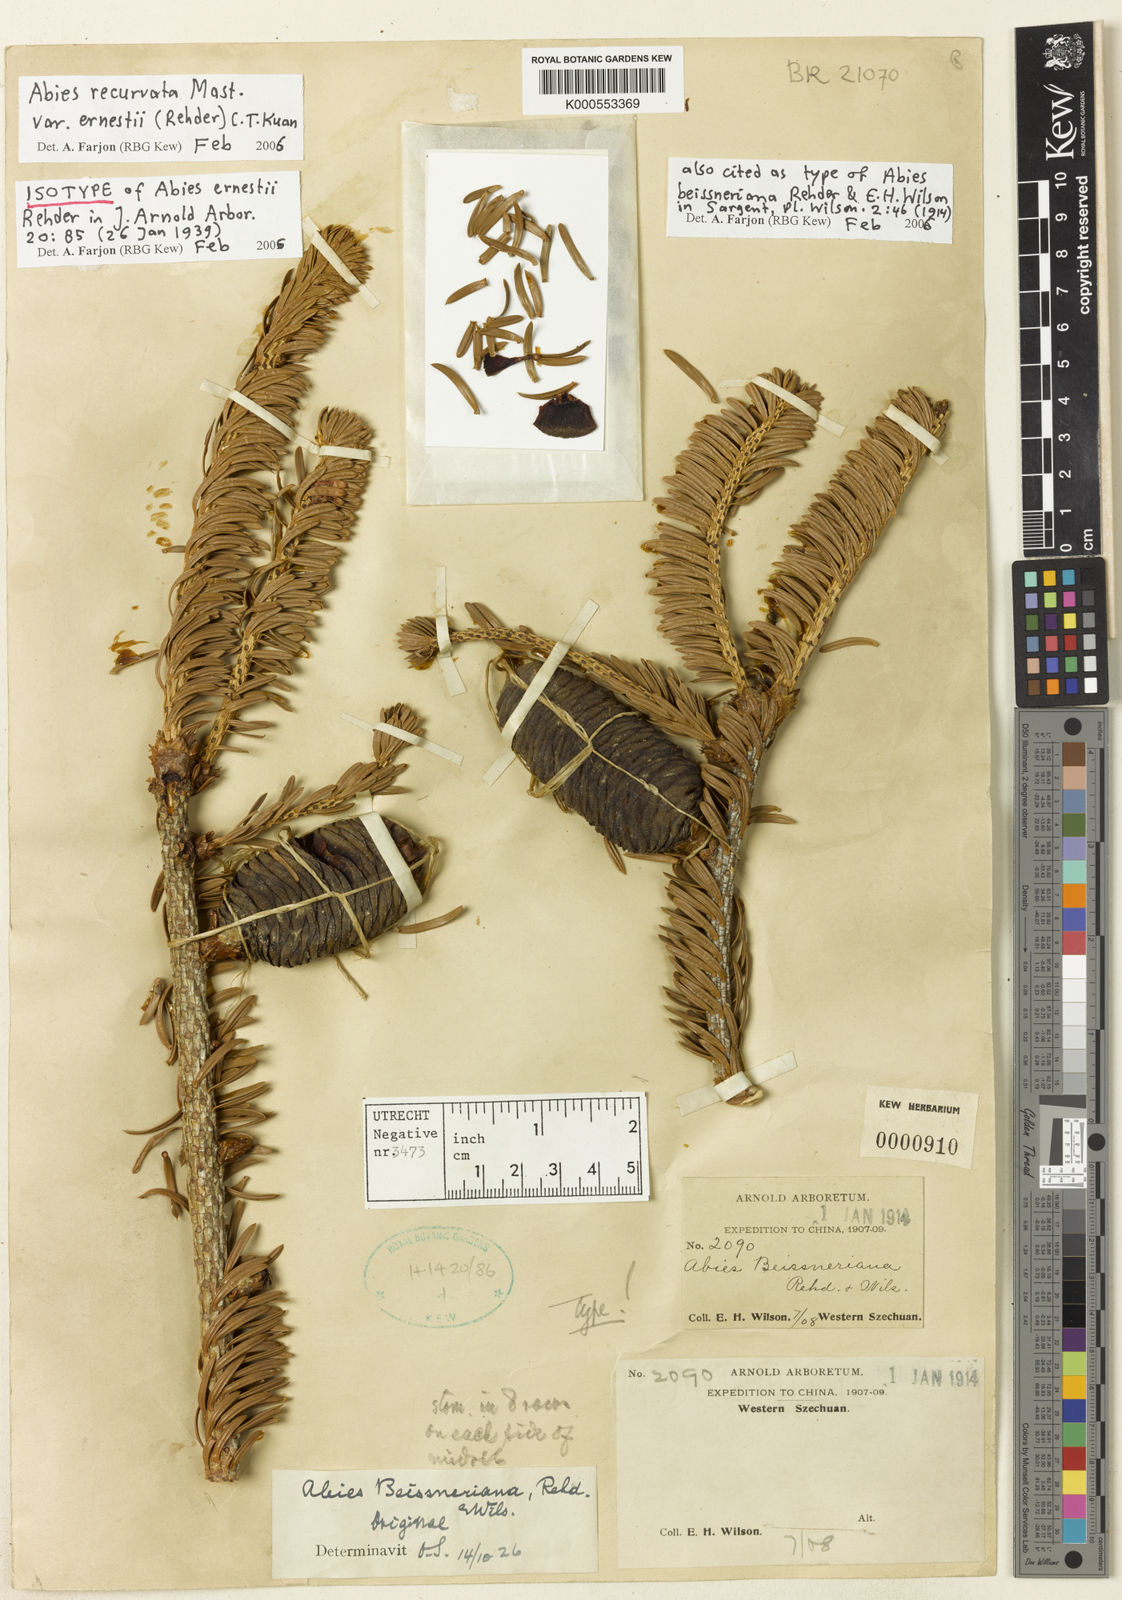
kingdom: Plantae
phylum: Tracheophyta
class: Pinopsida
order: Pinales
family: Pinaceae
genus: Abies
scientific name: Abies recurvata
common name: Min fir
